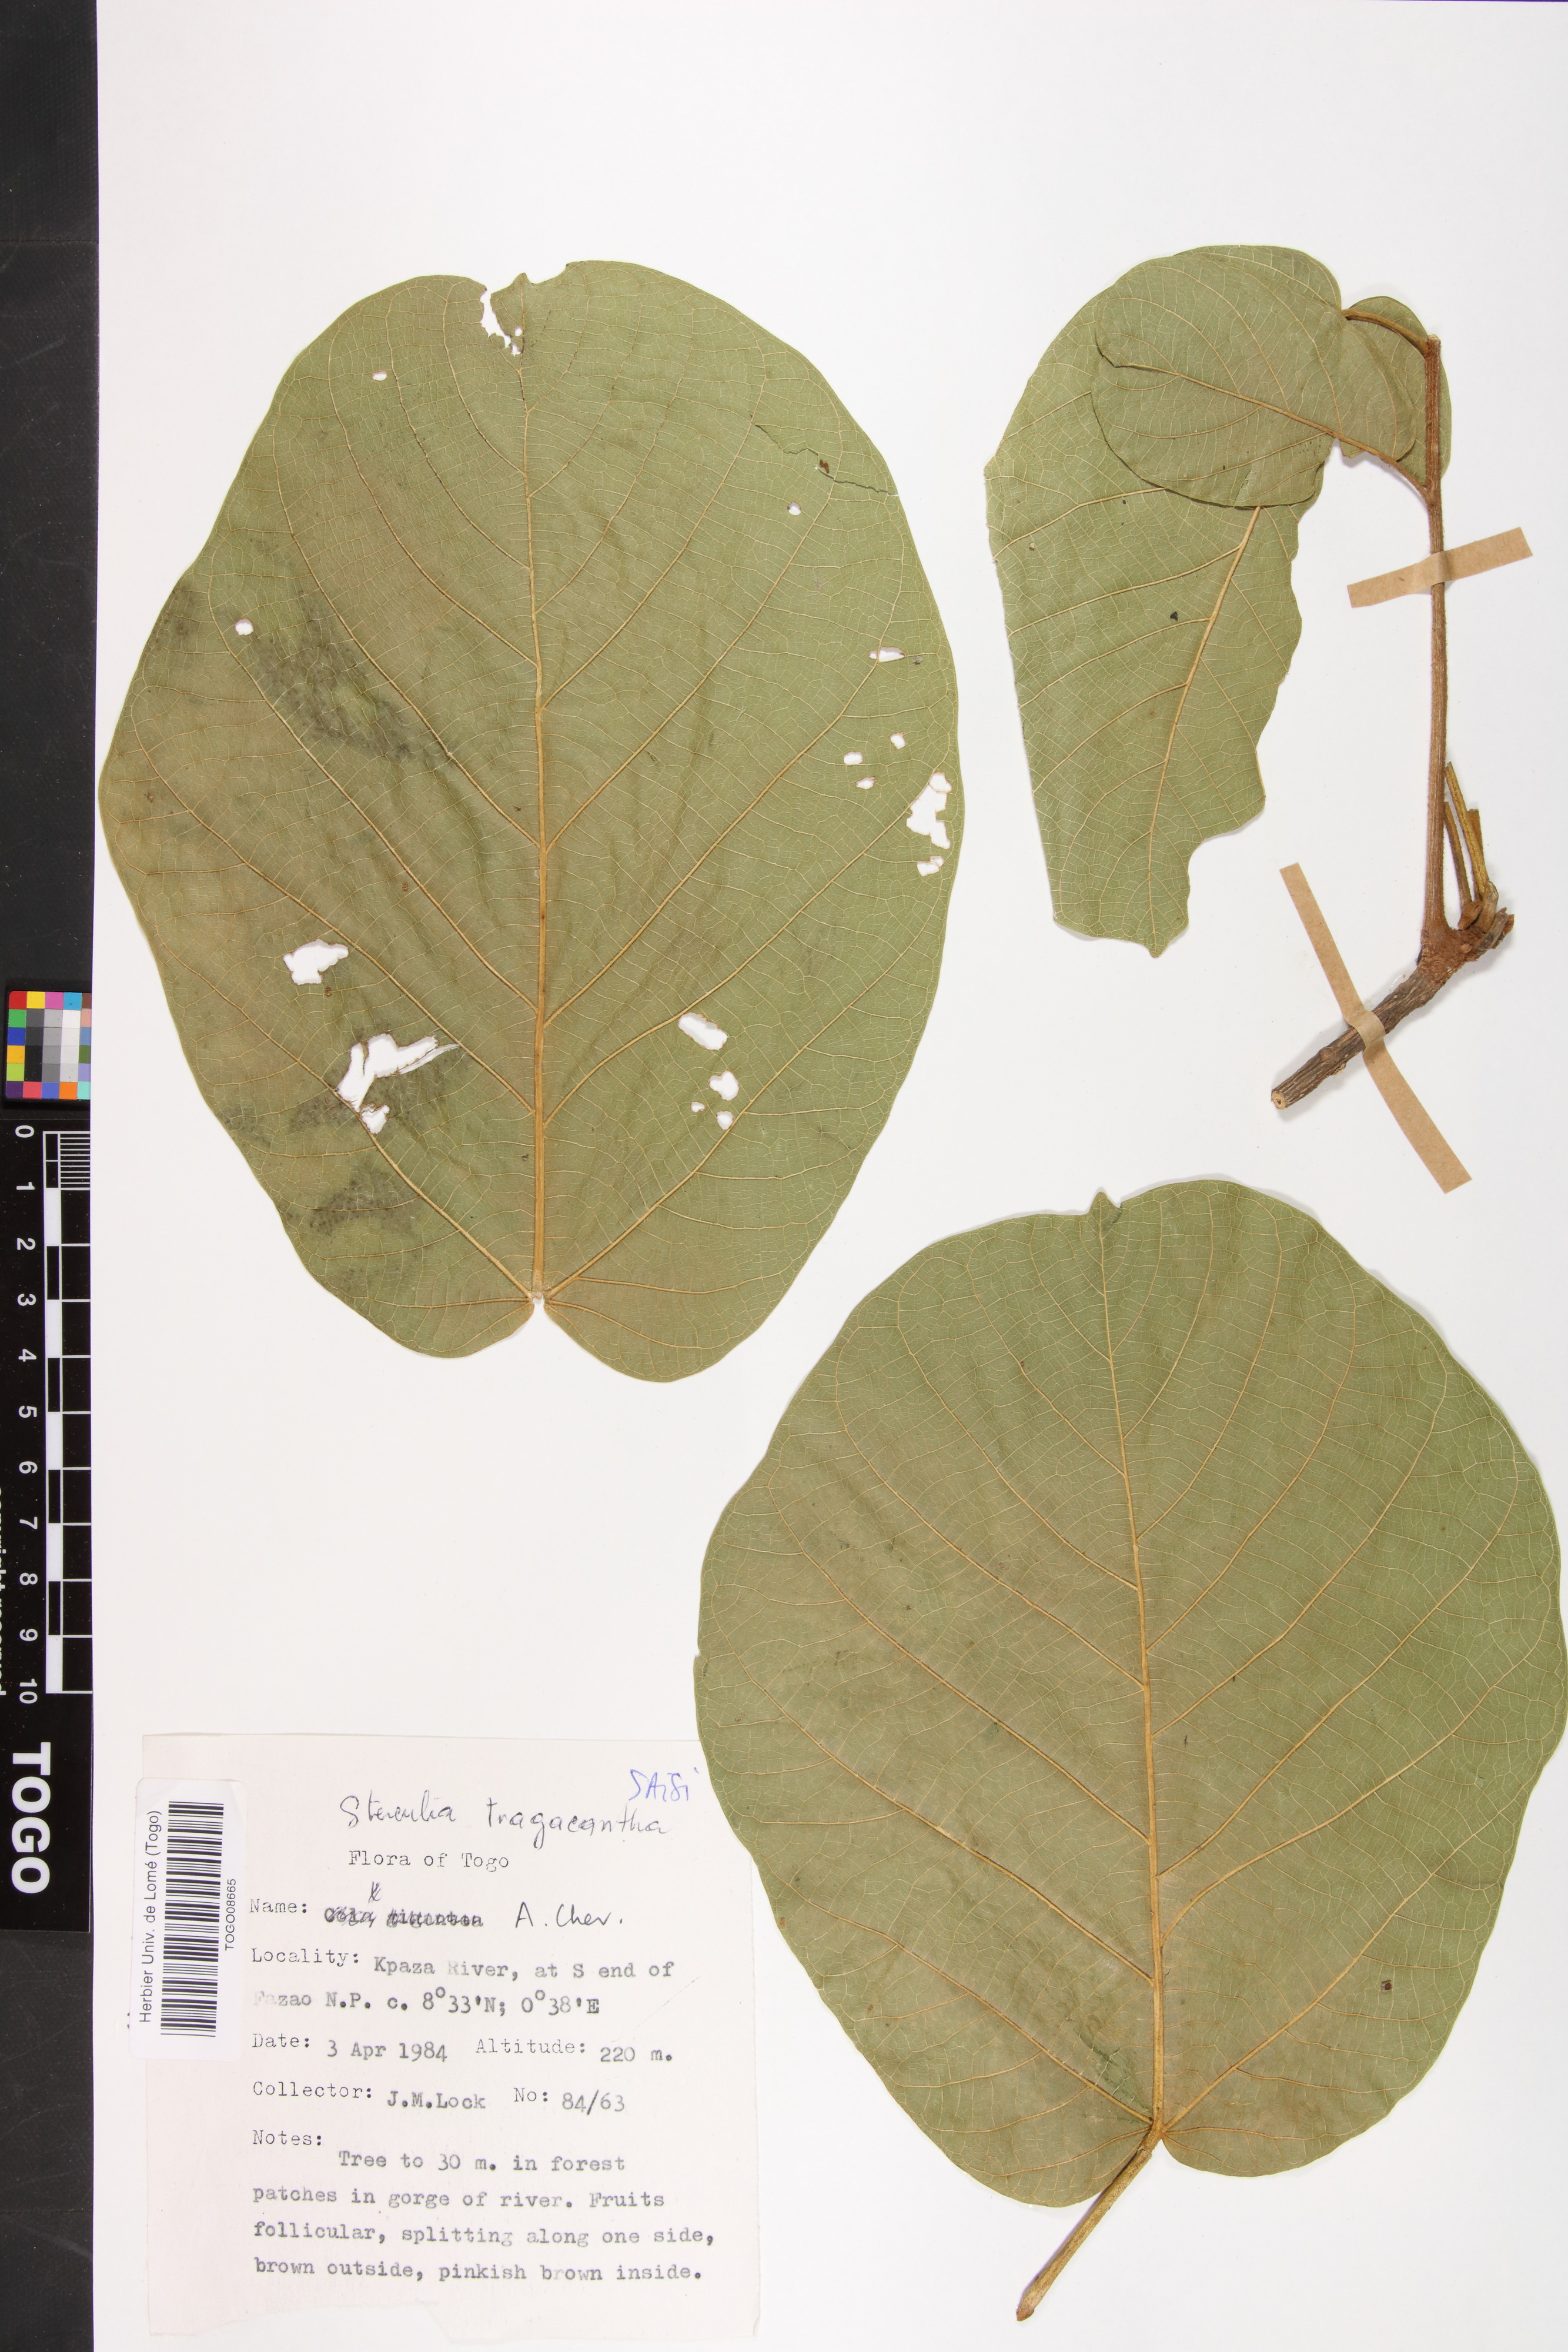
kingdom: Plantae
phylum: Tracheophyta
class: Magnoliopsida
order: Malvales
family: Malvaceae
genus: Sterculia
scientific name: Sterculia tragacantha
